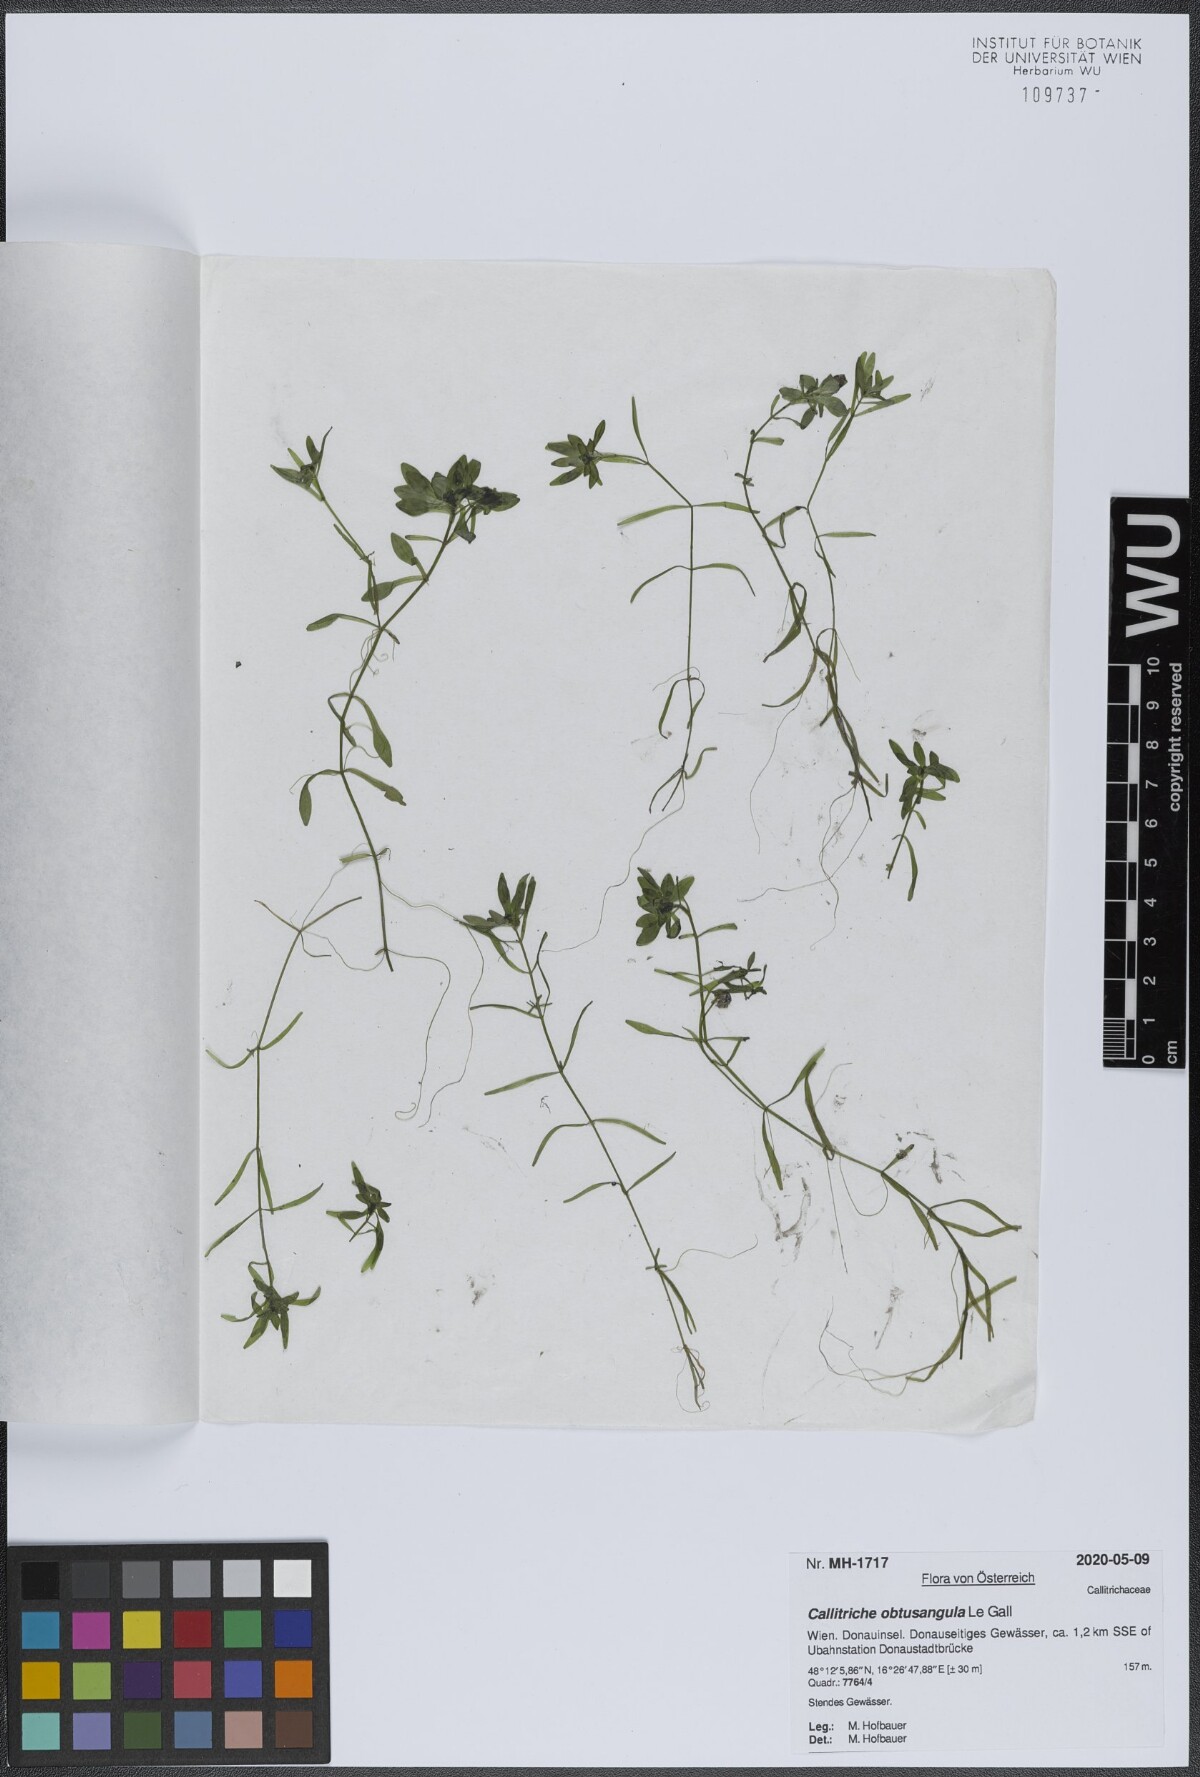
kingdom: Plantae
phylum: Tracheophyta
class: Magnoliopsida
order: Lamiales
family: Plantaginaceae
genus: Callitriche
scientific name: Callitriche obtusangula
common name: Blunt-fruited water-starwort
